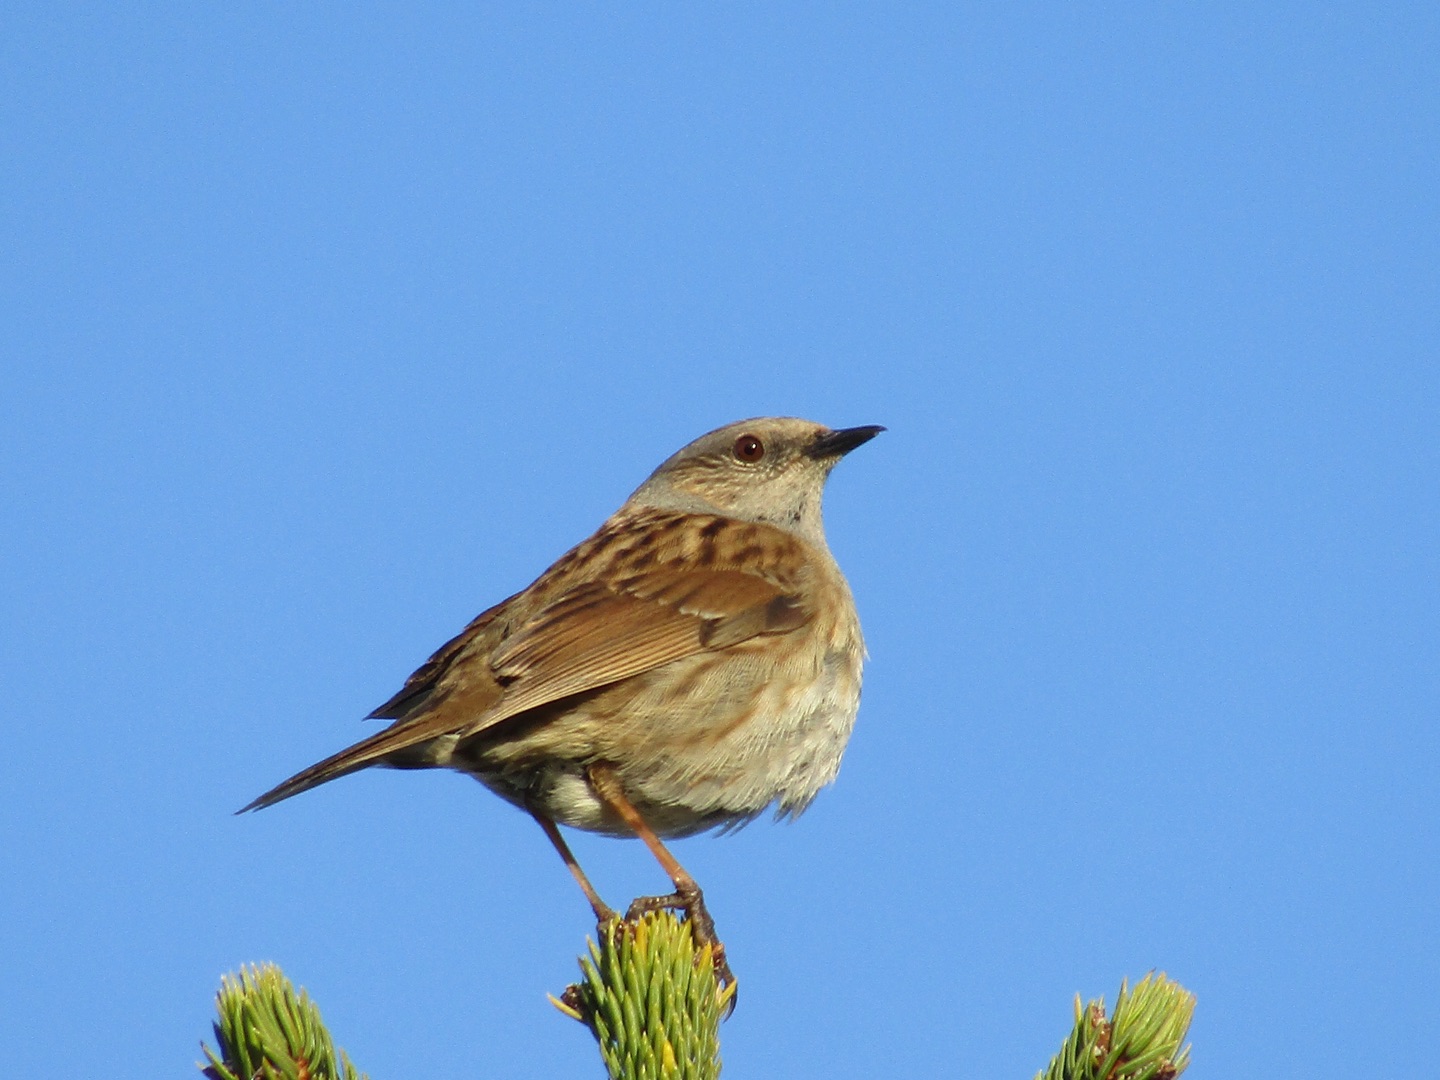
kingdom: Animalia
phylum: Chordata
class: Aves
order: Passeriformes
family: Prunellidae
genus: Prunella
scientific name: Prunella modularis
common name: Jernspurv
